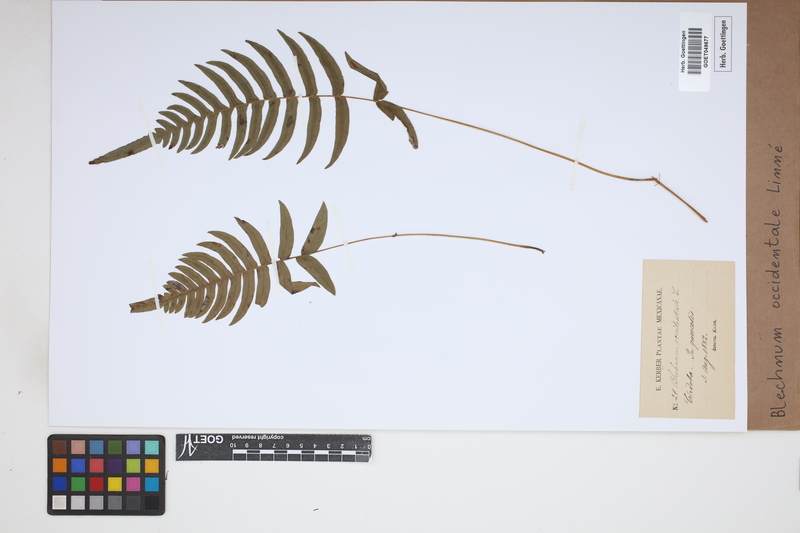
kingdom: Plantae
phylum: Tracheophyta
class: Polypodiopsida
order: Polypodiales
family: Blechnaceae
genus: Blechnum
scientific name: Blechnum occidentale
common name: Hammock fern
